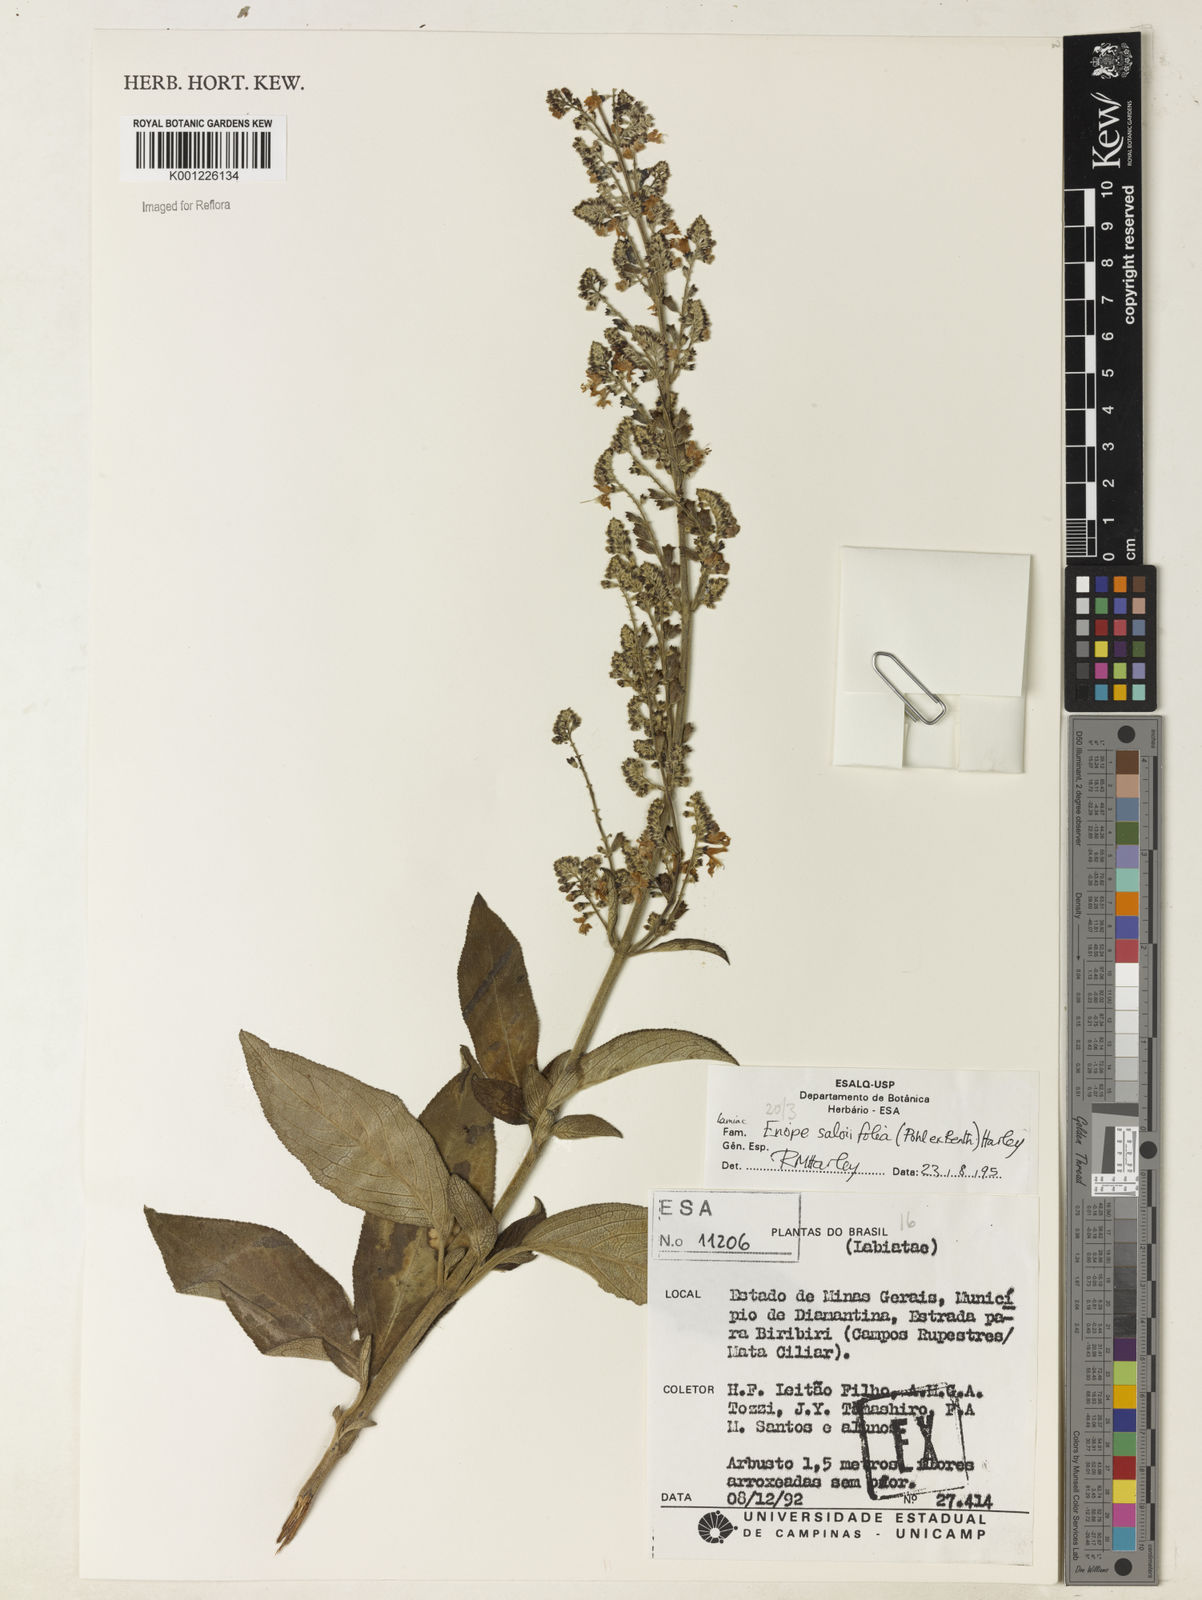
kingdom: Plantae
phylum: Tracheophyta
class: Magnoliopsida
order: Lamiales
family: Lamiaceae
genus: Eriope
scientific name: Eriope salviifolia
